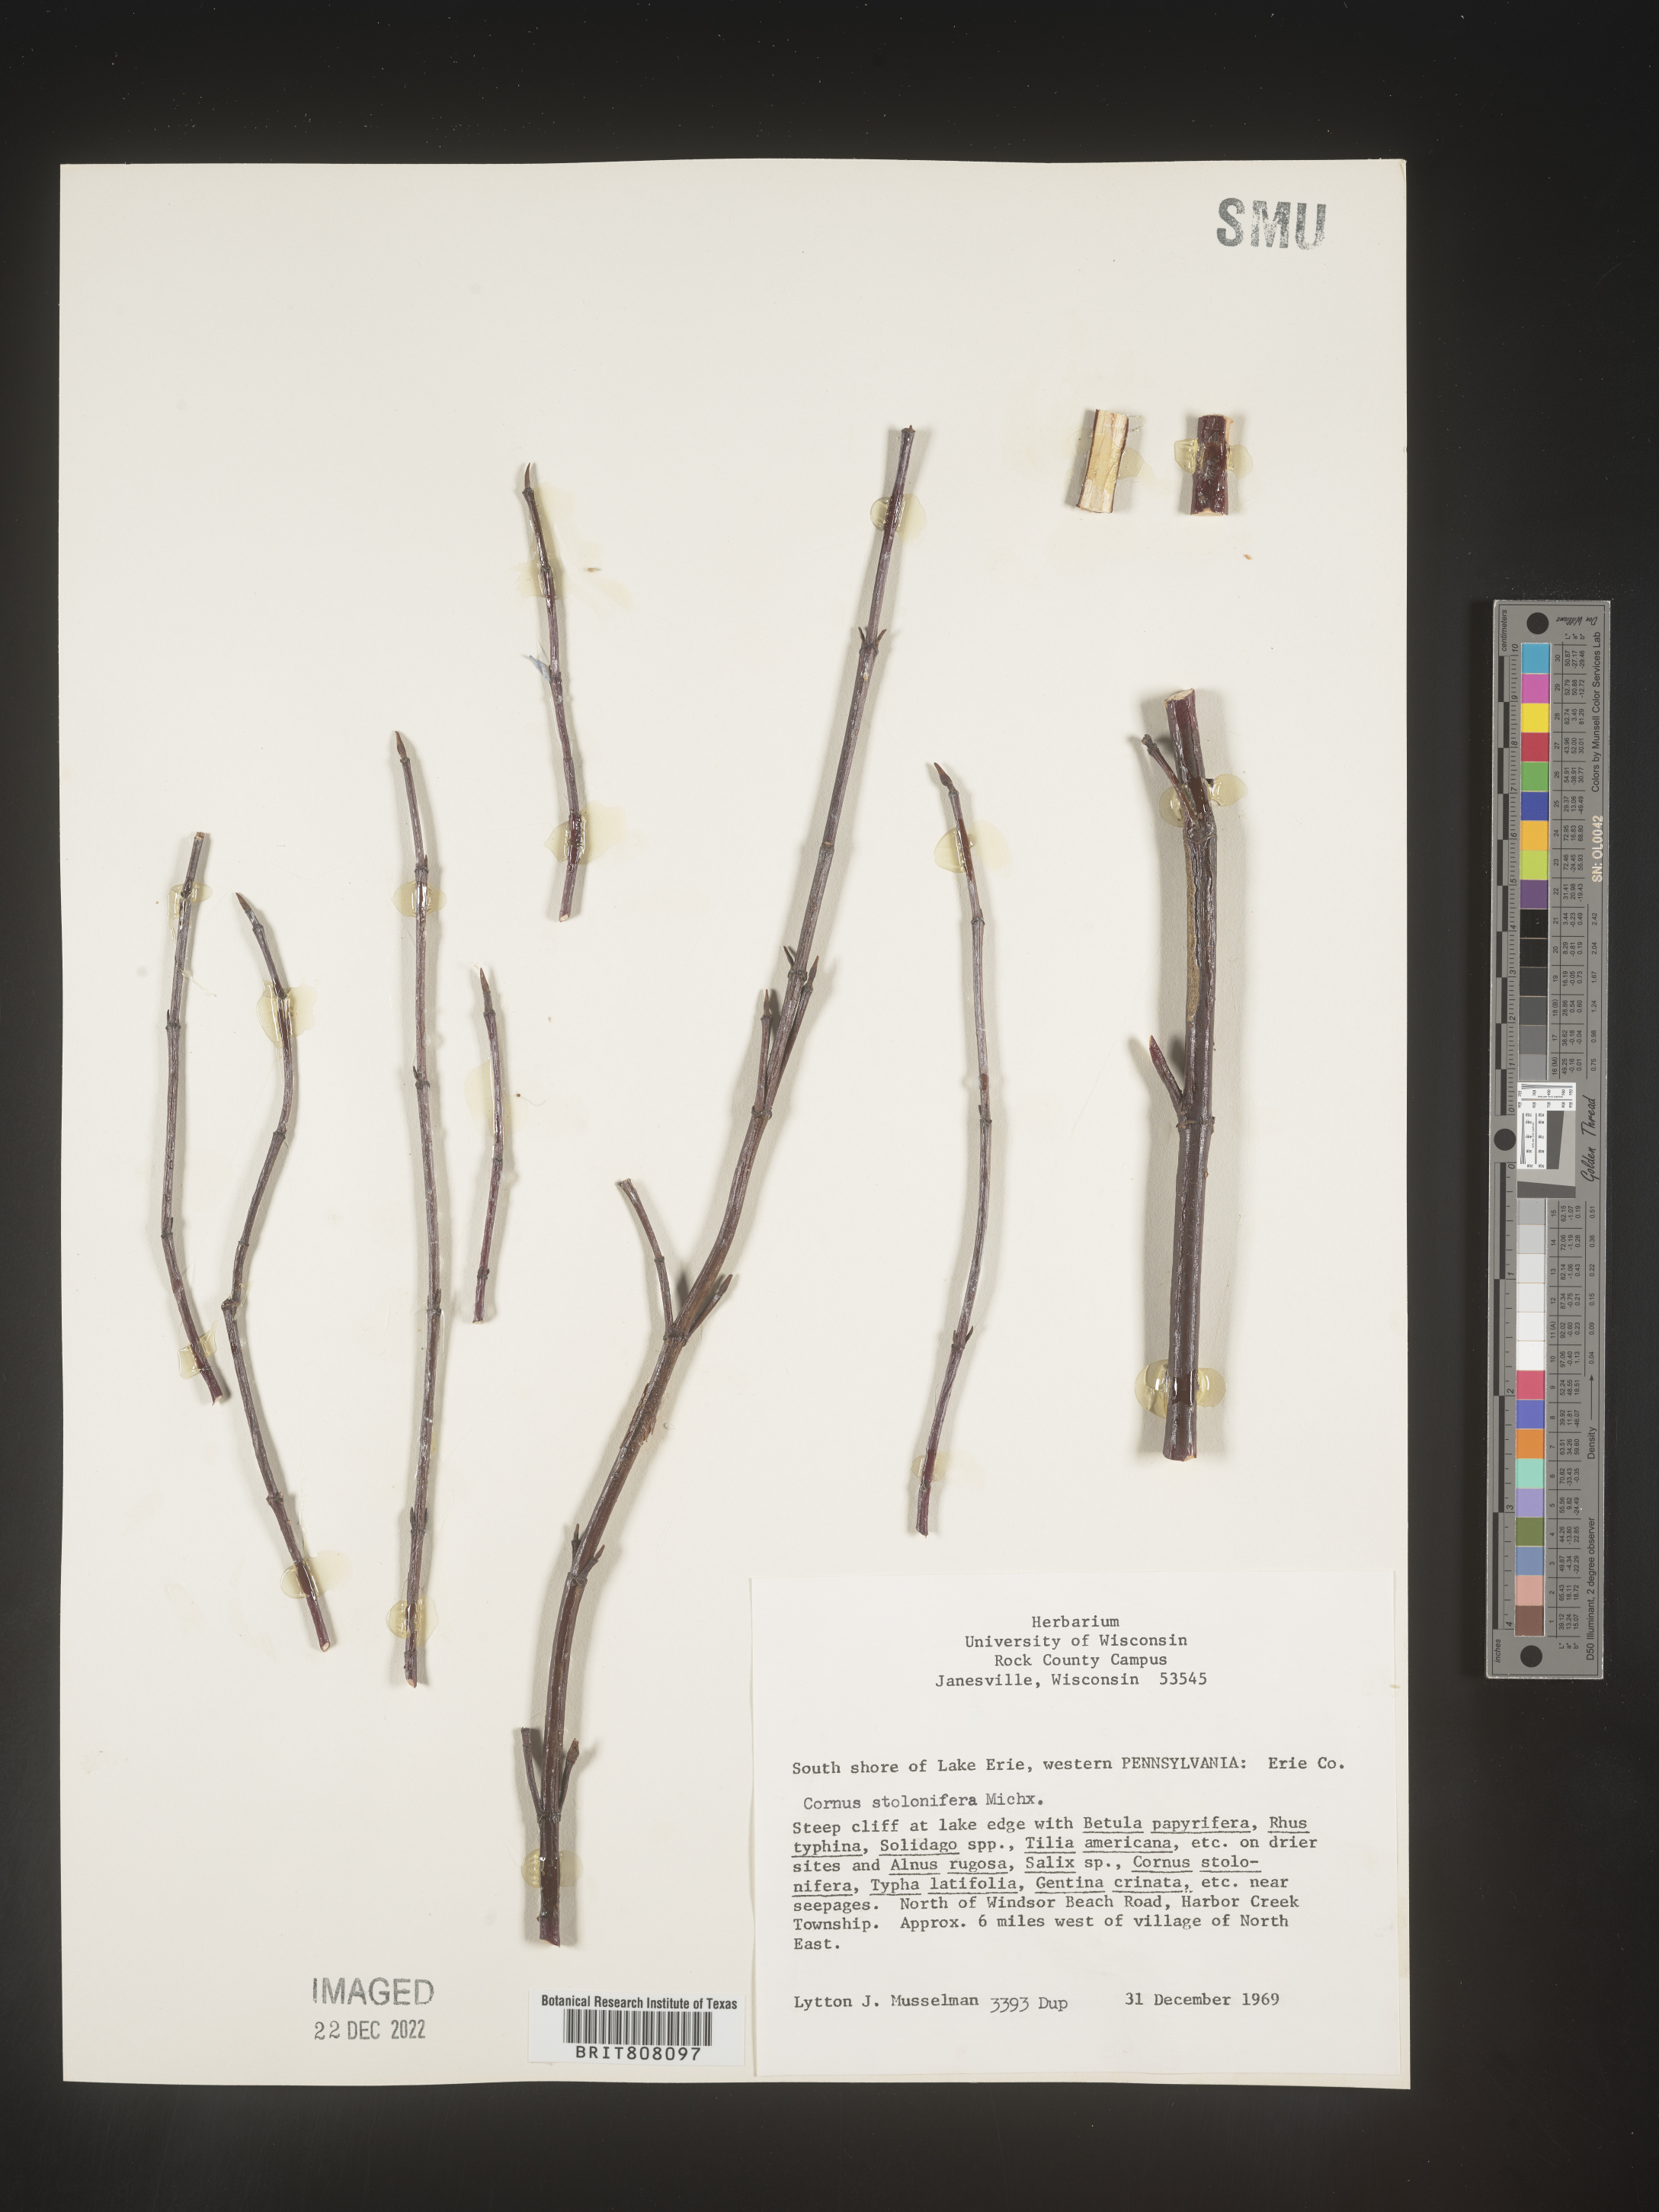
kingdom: Plantae
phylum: Tracheophyta
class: Magnoliopsida
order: Cornales
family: Cornaceae
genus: Cornus
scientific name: Cornus sericea
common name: Red-osier dogwood
